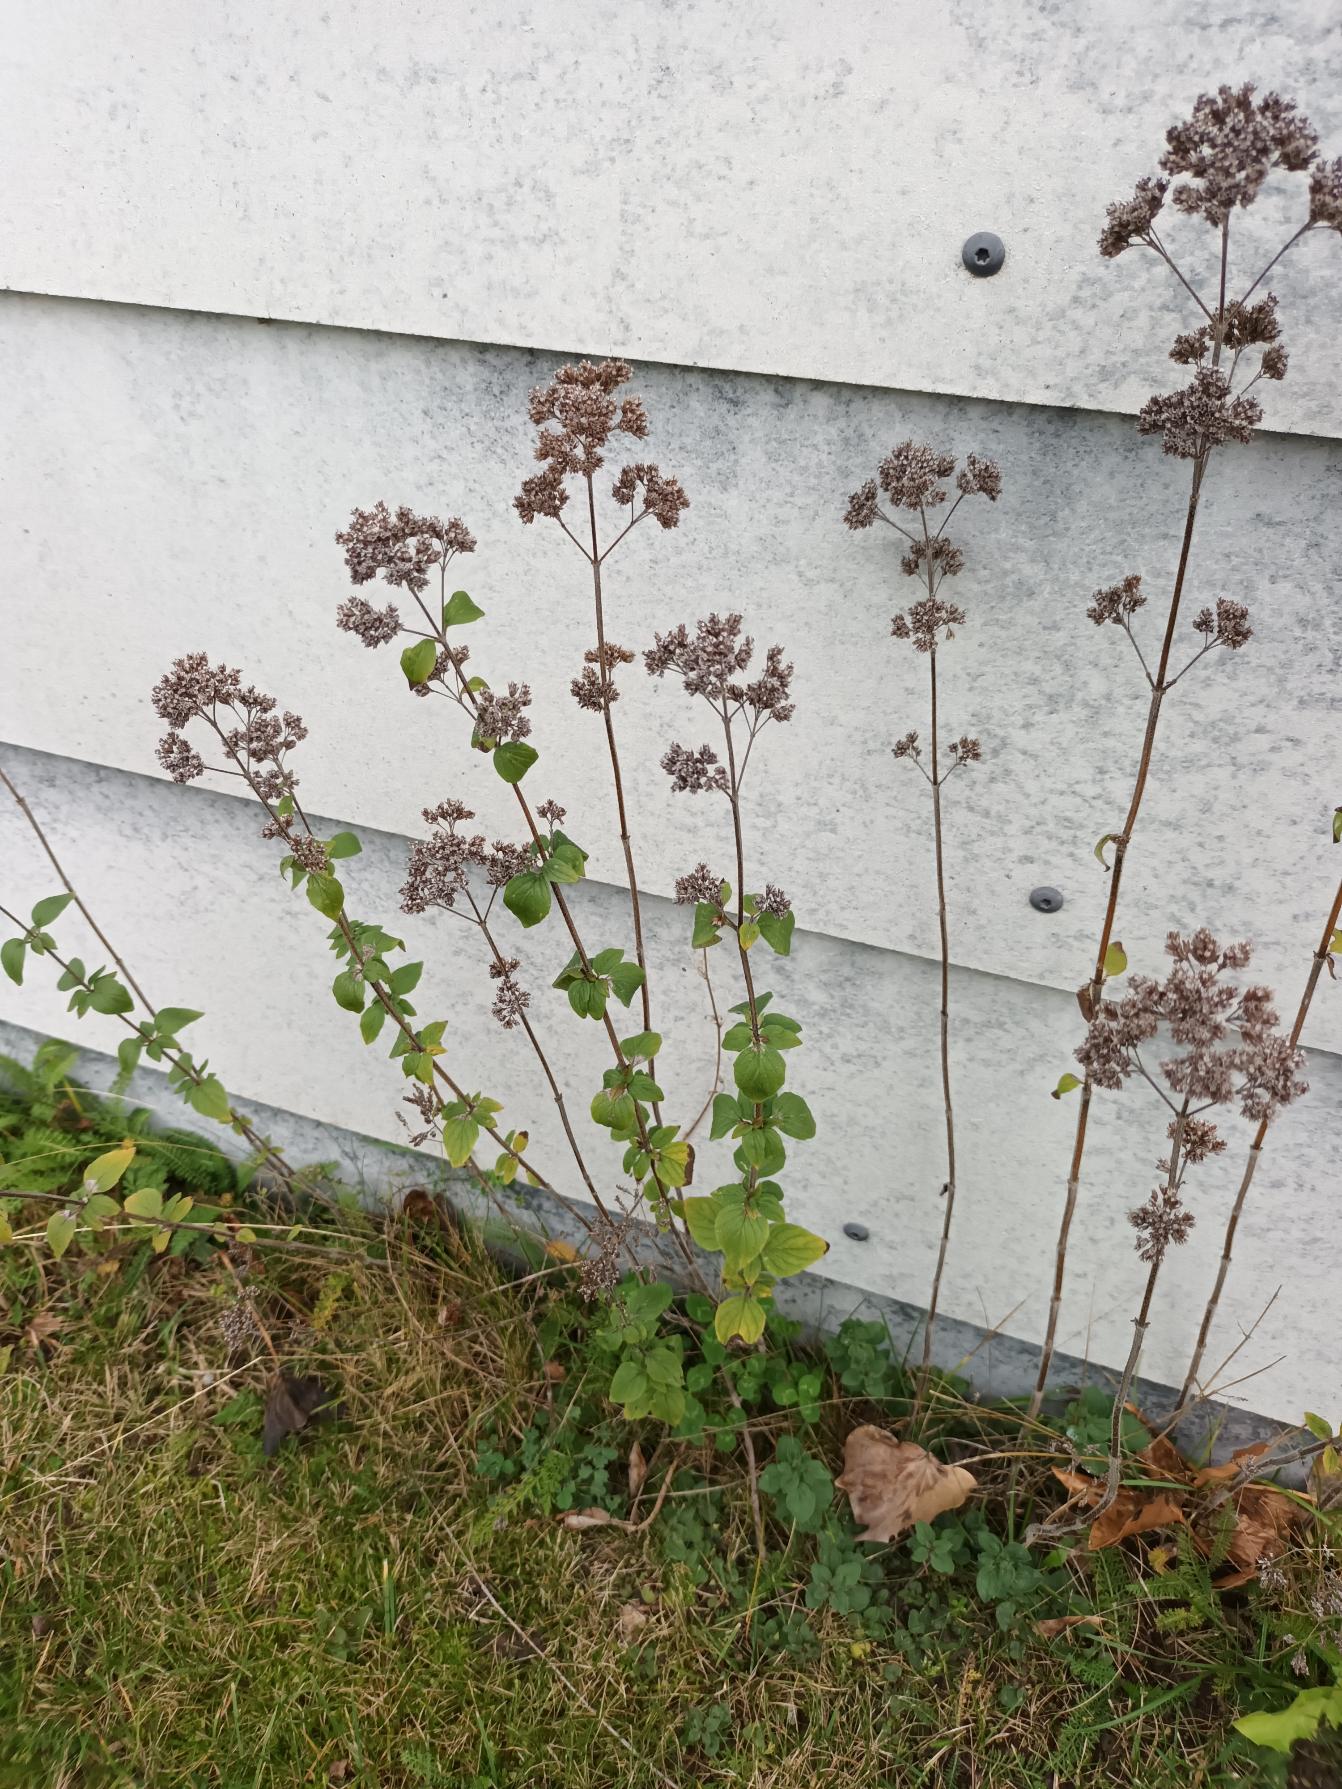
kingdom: Plantae
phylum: Tracheophyta
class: Magnoliopsida
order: Lamiales
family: Lamiaceae
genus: Origanum
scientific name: Origanum vulgare
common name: Merian
